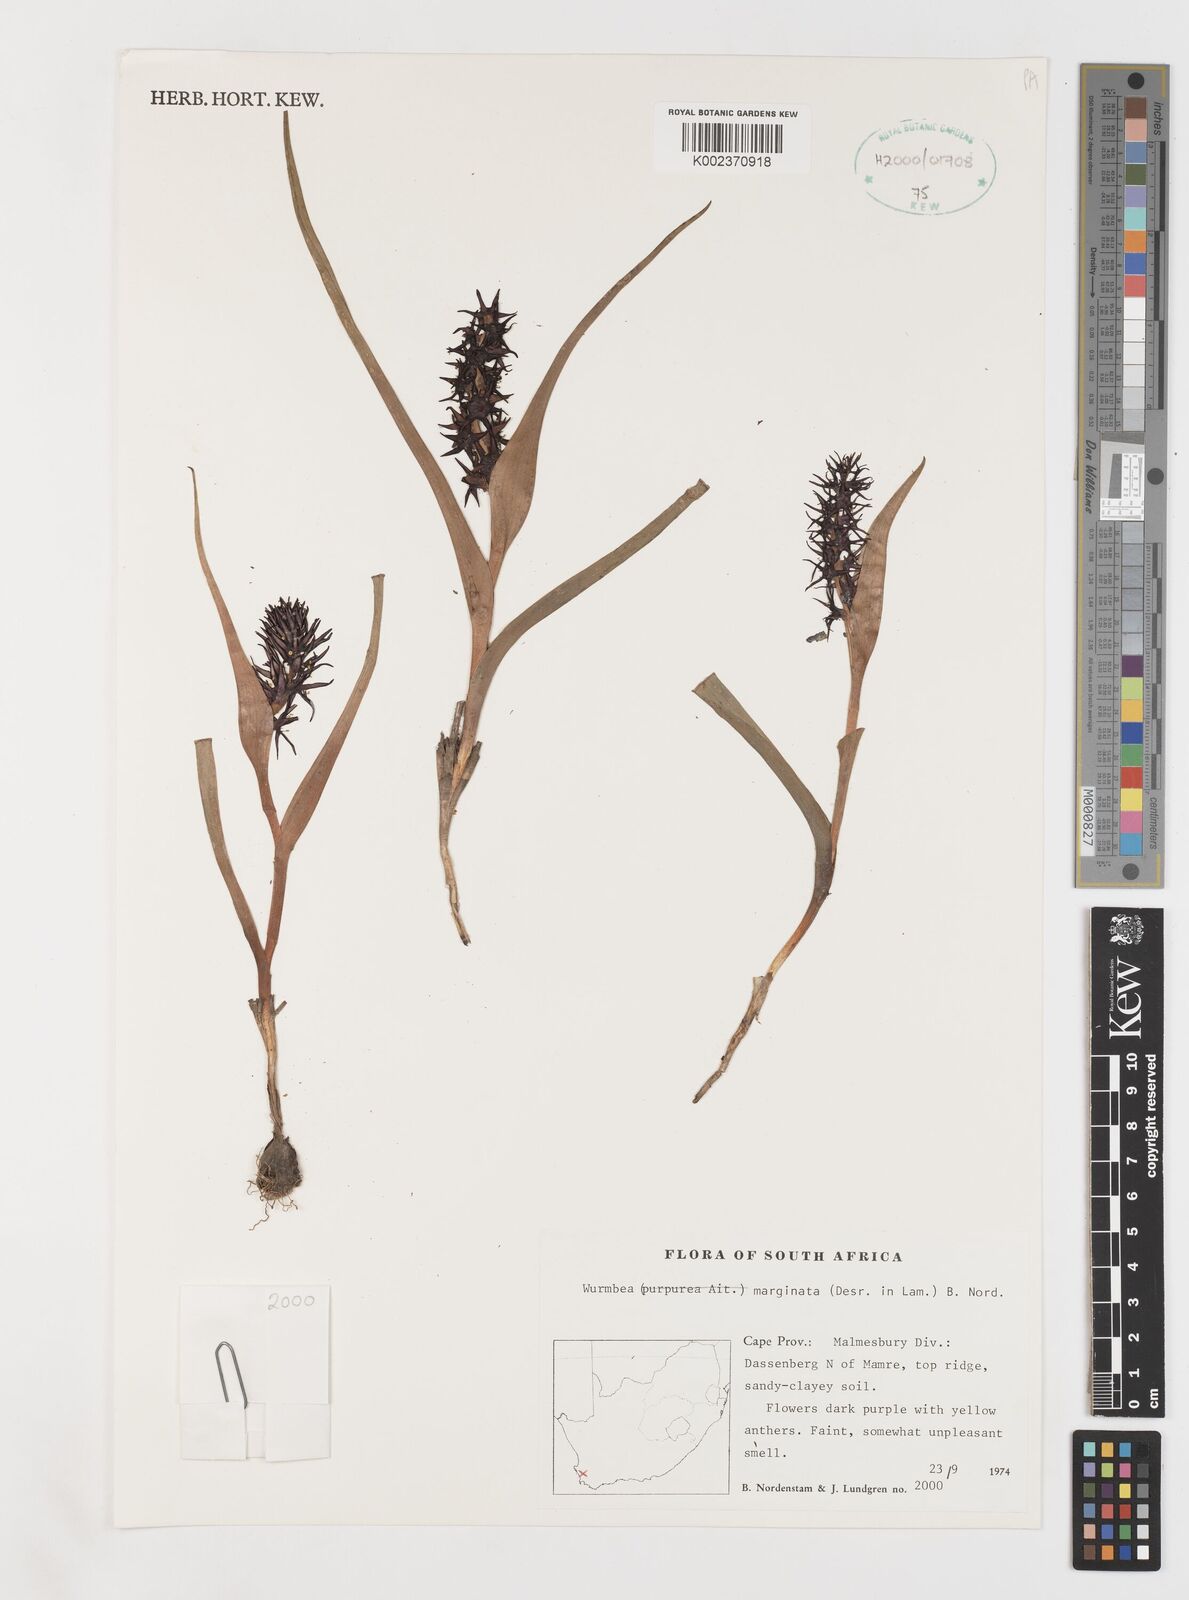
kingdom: Plantae
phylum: Tracheophyta
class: Liliopsida
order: Liliales
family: Colchicaceae
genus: Wurmbea
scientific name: Wurmbea marginata
